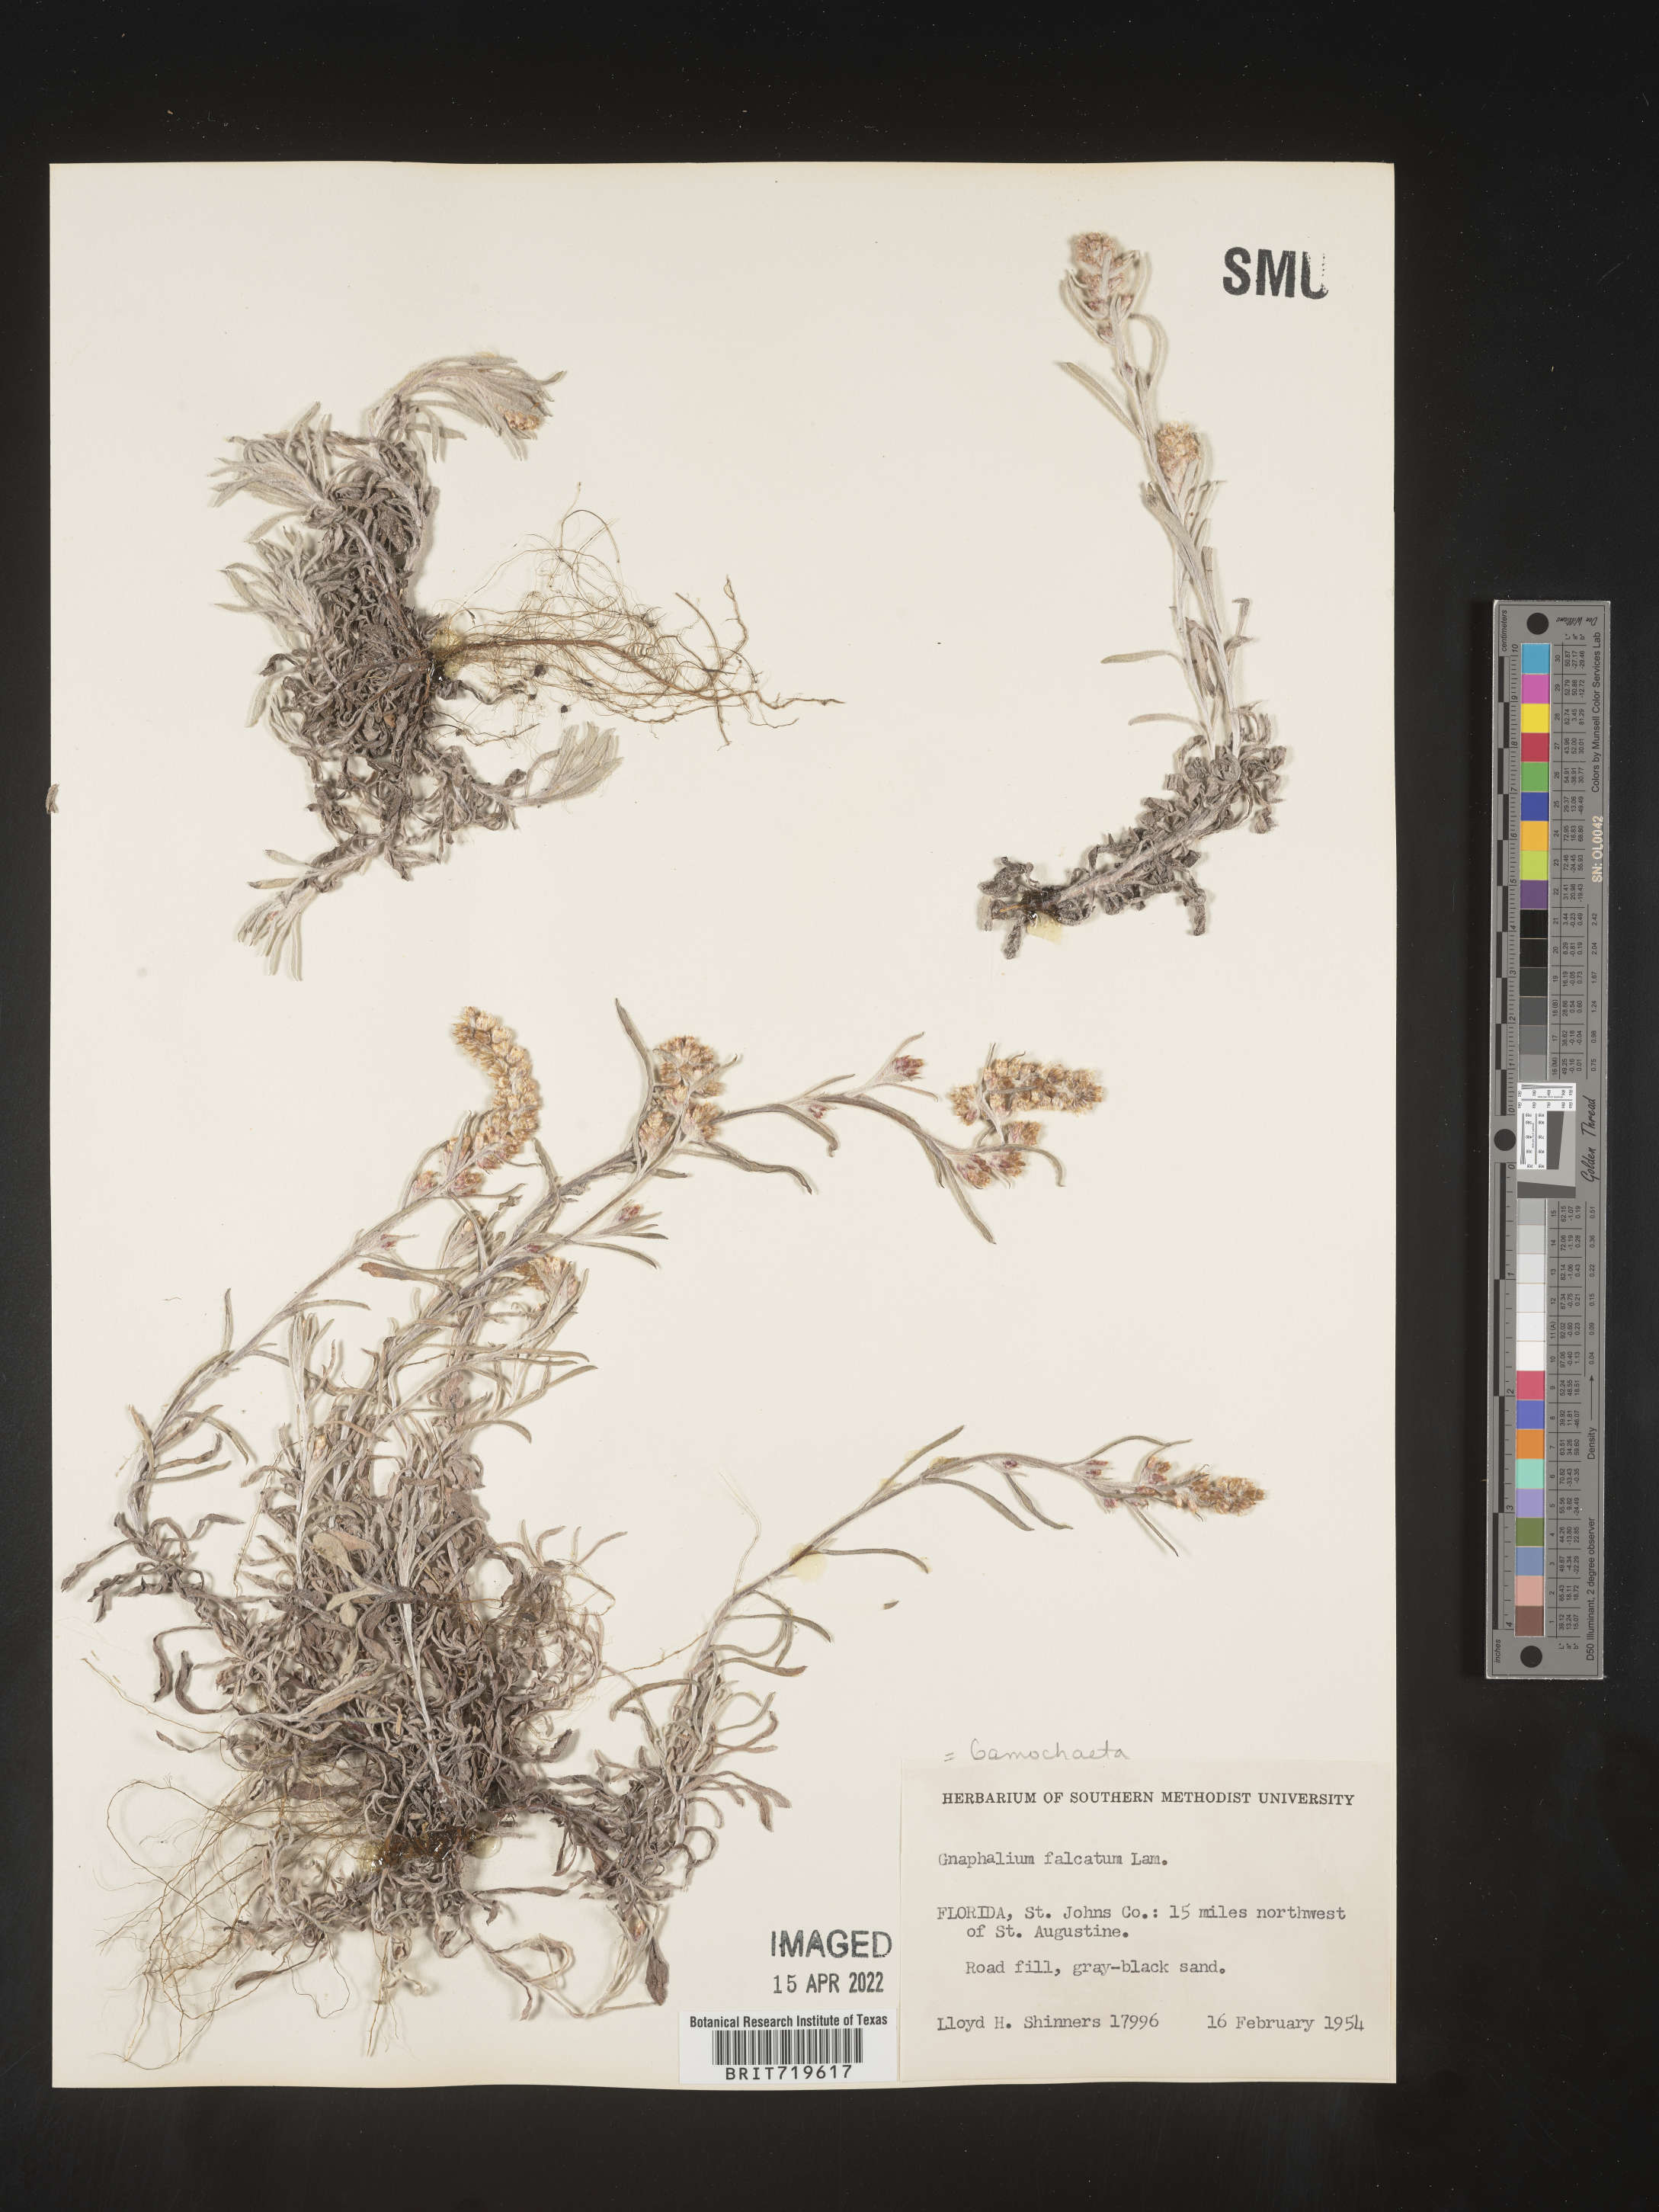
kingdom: Plantae
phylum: Tracheophyta
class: Magnoliopsida
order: Asterales
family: Asteraceae
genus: Gamochaeta
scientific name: Gamochaeta antillana
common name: Delicate everlasting
